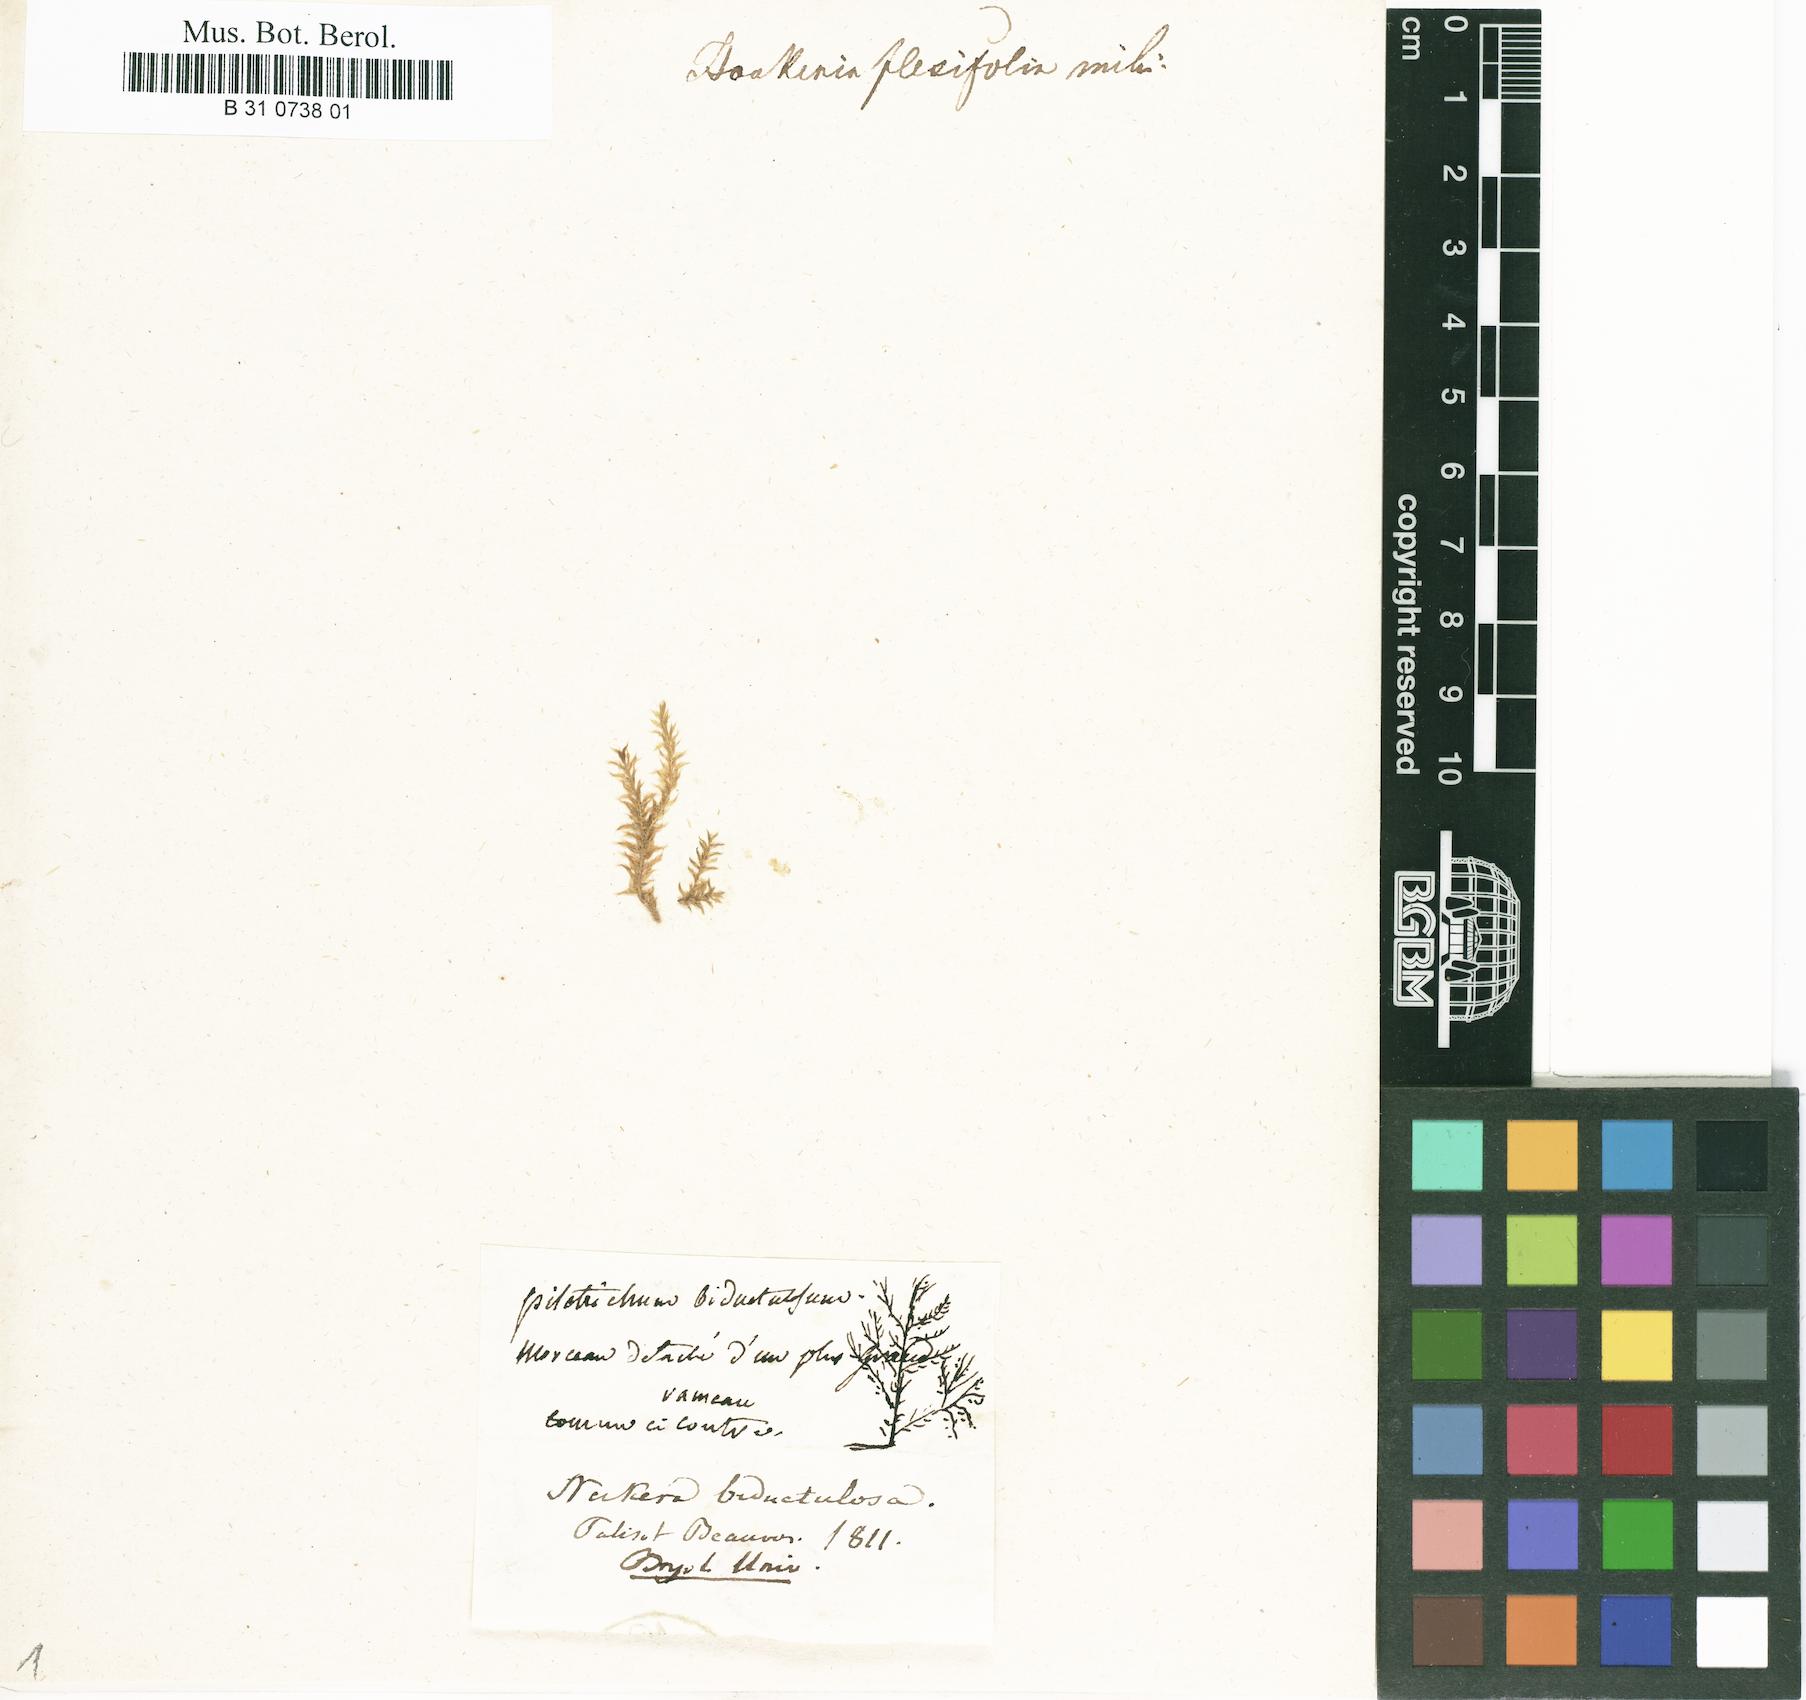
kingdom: Plantae
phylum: Bryophyta
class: Bryopsida
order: Hookeriales
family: Pilotrichaceae
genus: Lepidopilum
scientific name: Lepidopilum polytrichoides
